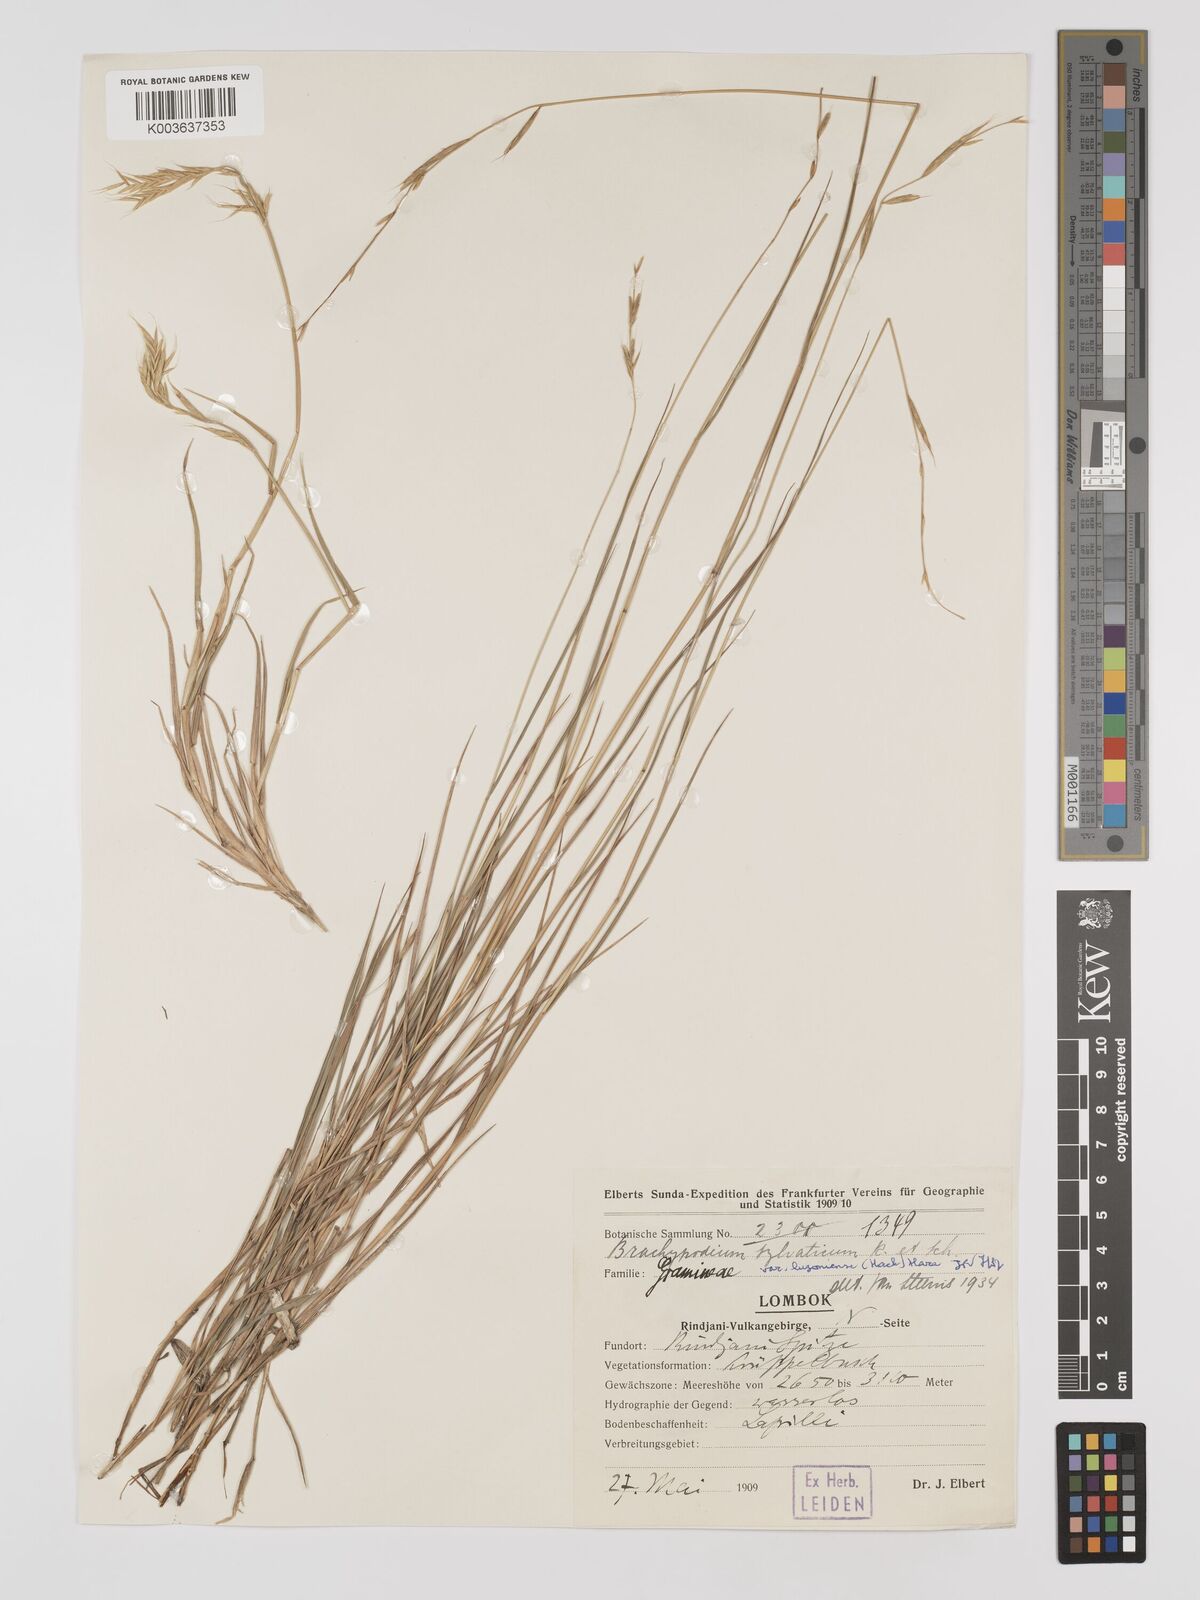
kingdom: Plantae
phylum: Tracheophyta
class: Liliopsida
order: Poales
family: Poaceae
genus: Brachypodium
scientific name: Brachypodium sylvaticum
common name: False-brome
